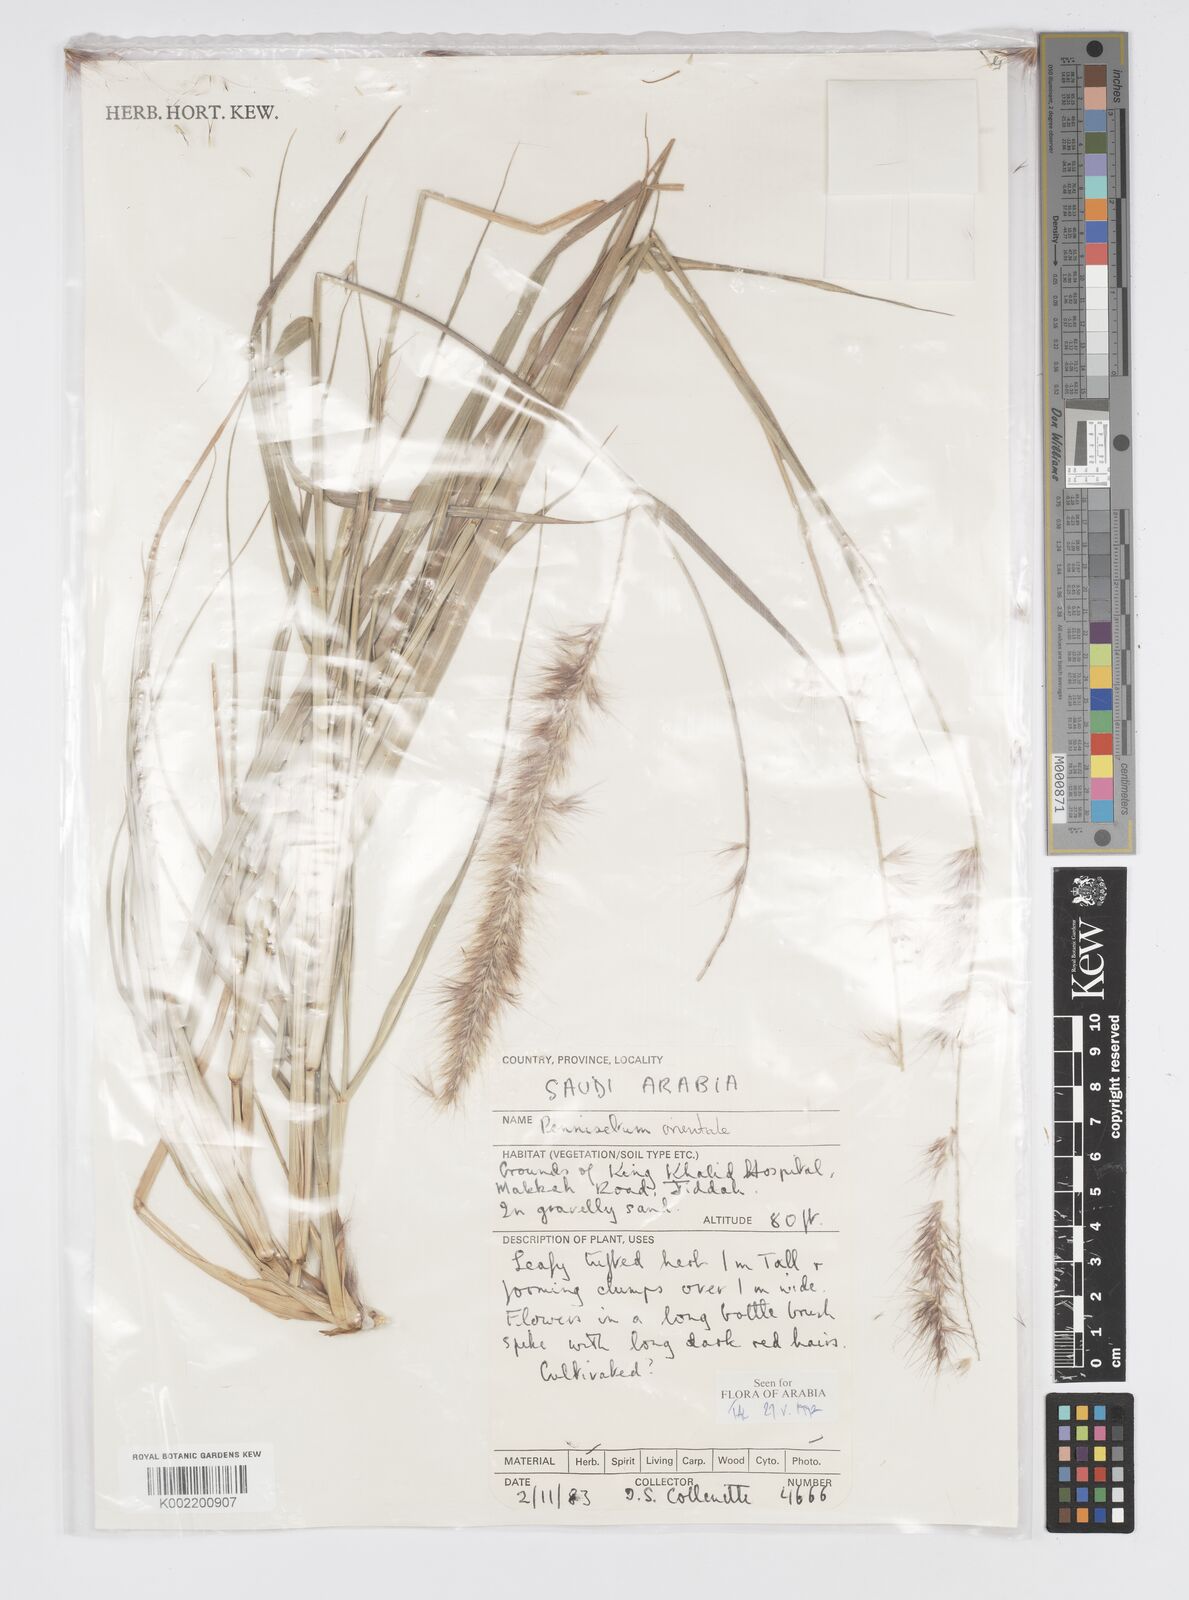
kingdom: Plantae
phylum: Tracheophyta
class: Liliopsida
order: Poales
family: Poaceae
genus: Cenchrus
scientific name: Cenchrus orientalis
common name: Oriental fountain grass
